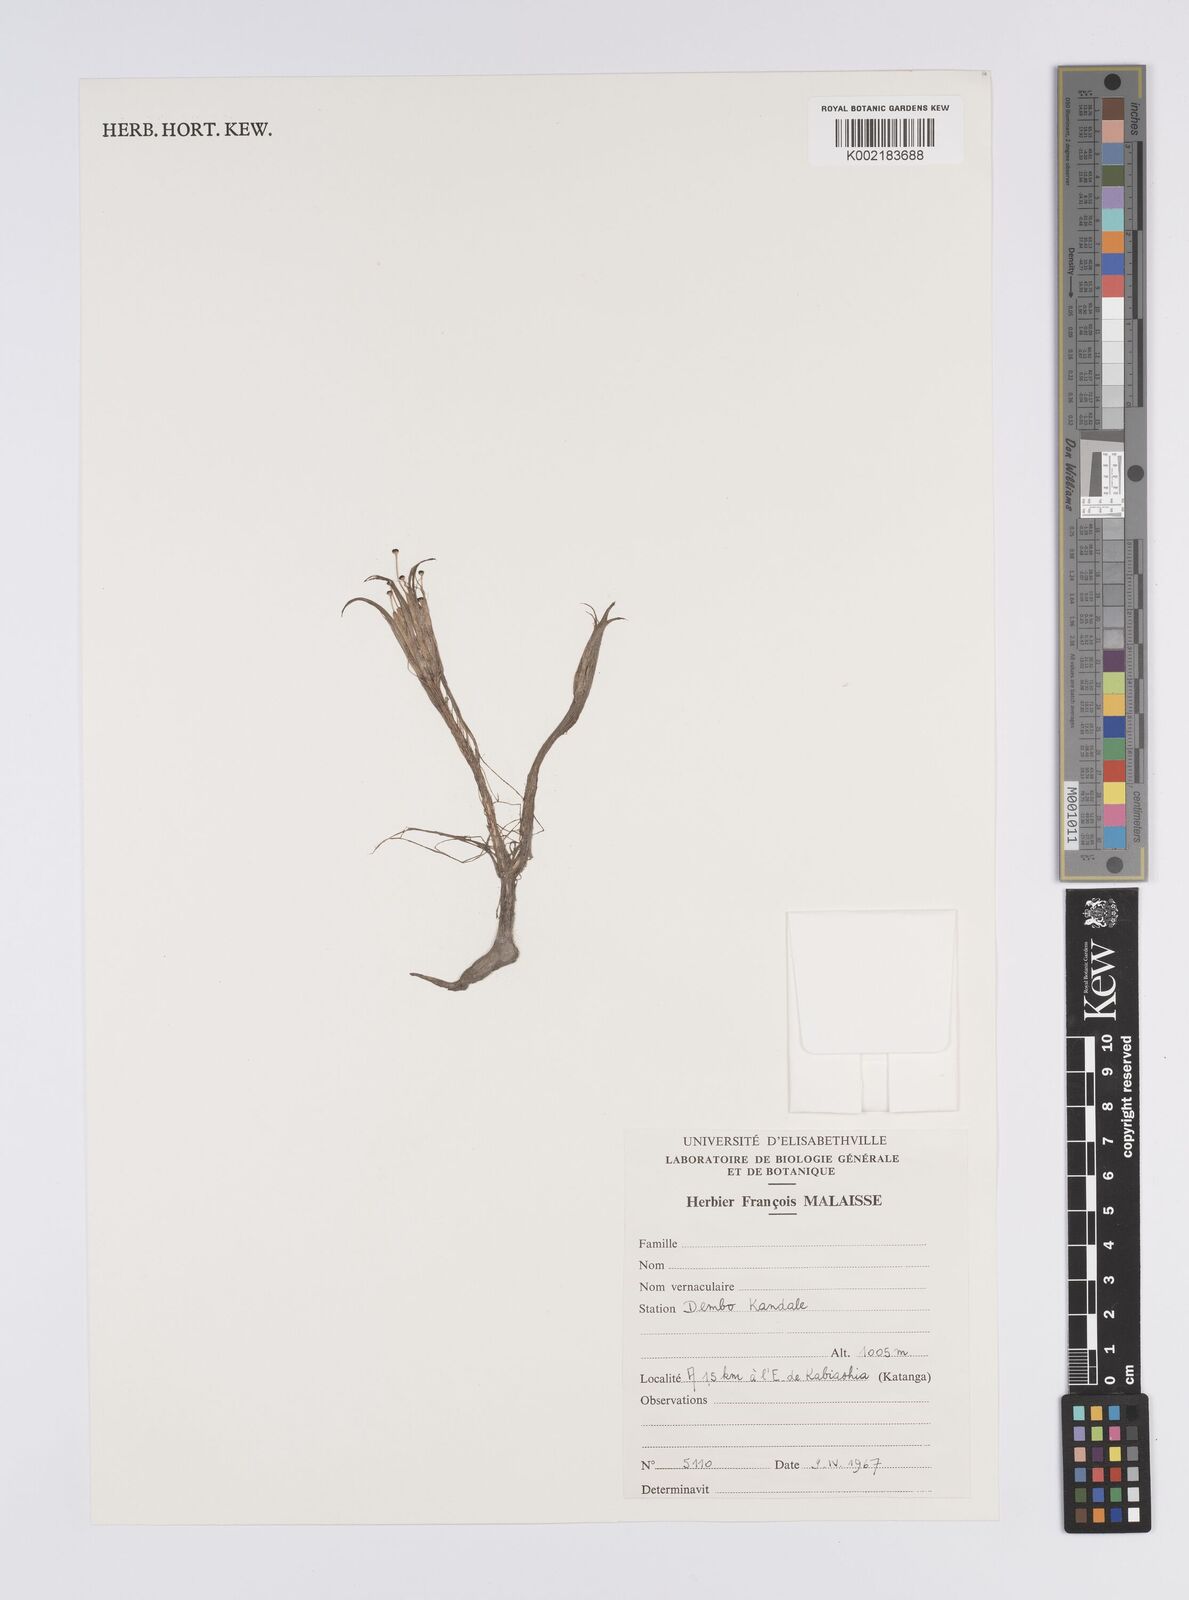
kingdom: Plantae
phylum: Tracheophyta
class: Liliopsida
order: Poales
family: Eriocaulaceae
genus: Eriocaulon
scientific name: Eriocaulon setaceum
